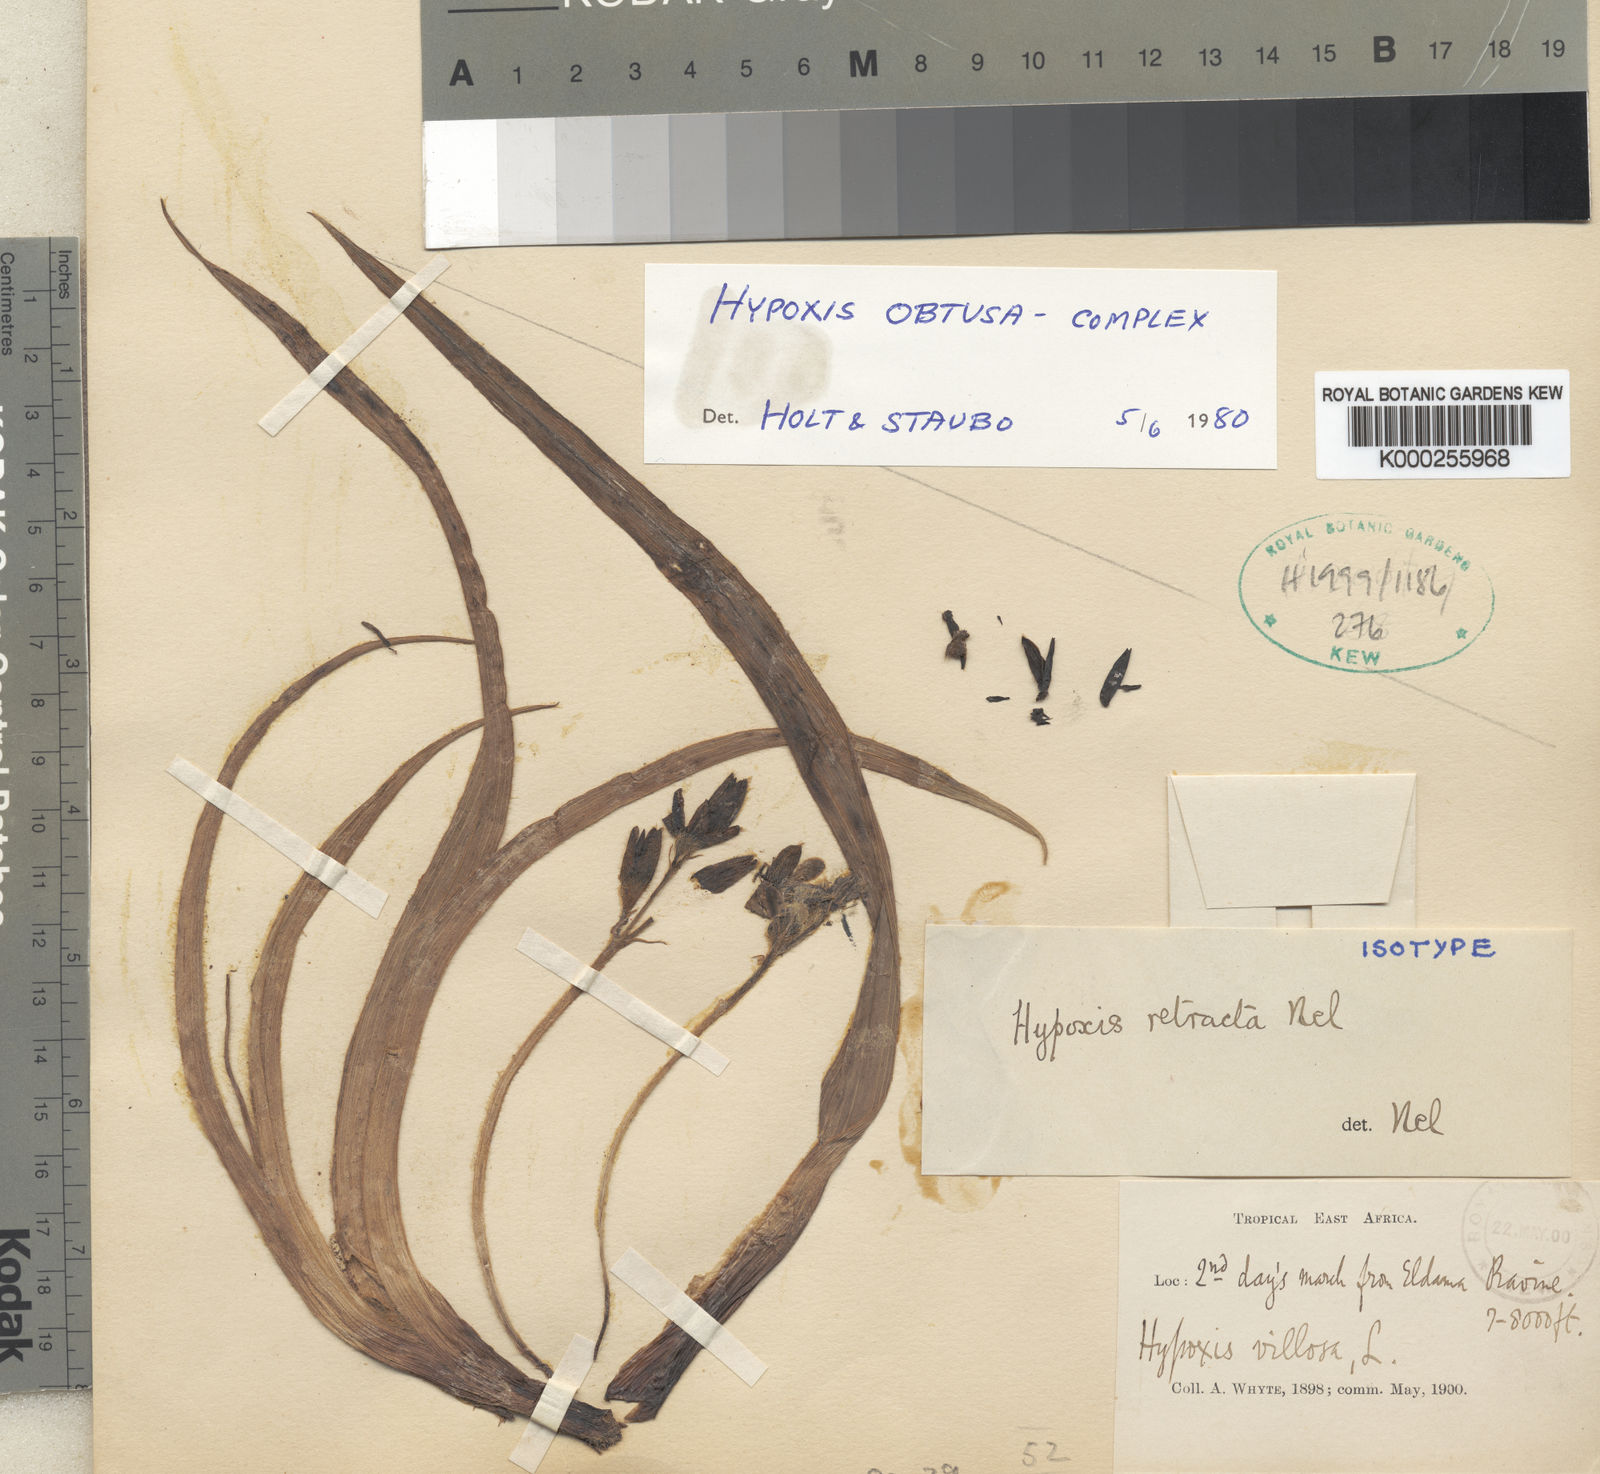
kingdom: Plantae
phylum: Tracheophyta
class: Liliopsida
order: Asparagales
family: Hypoxidaceae
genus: Hypoxis
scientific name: Hypoxis urceolata
